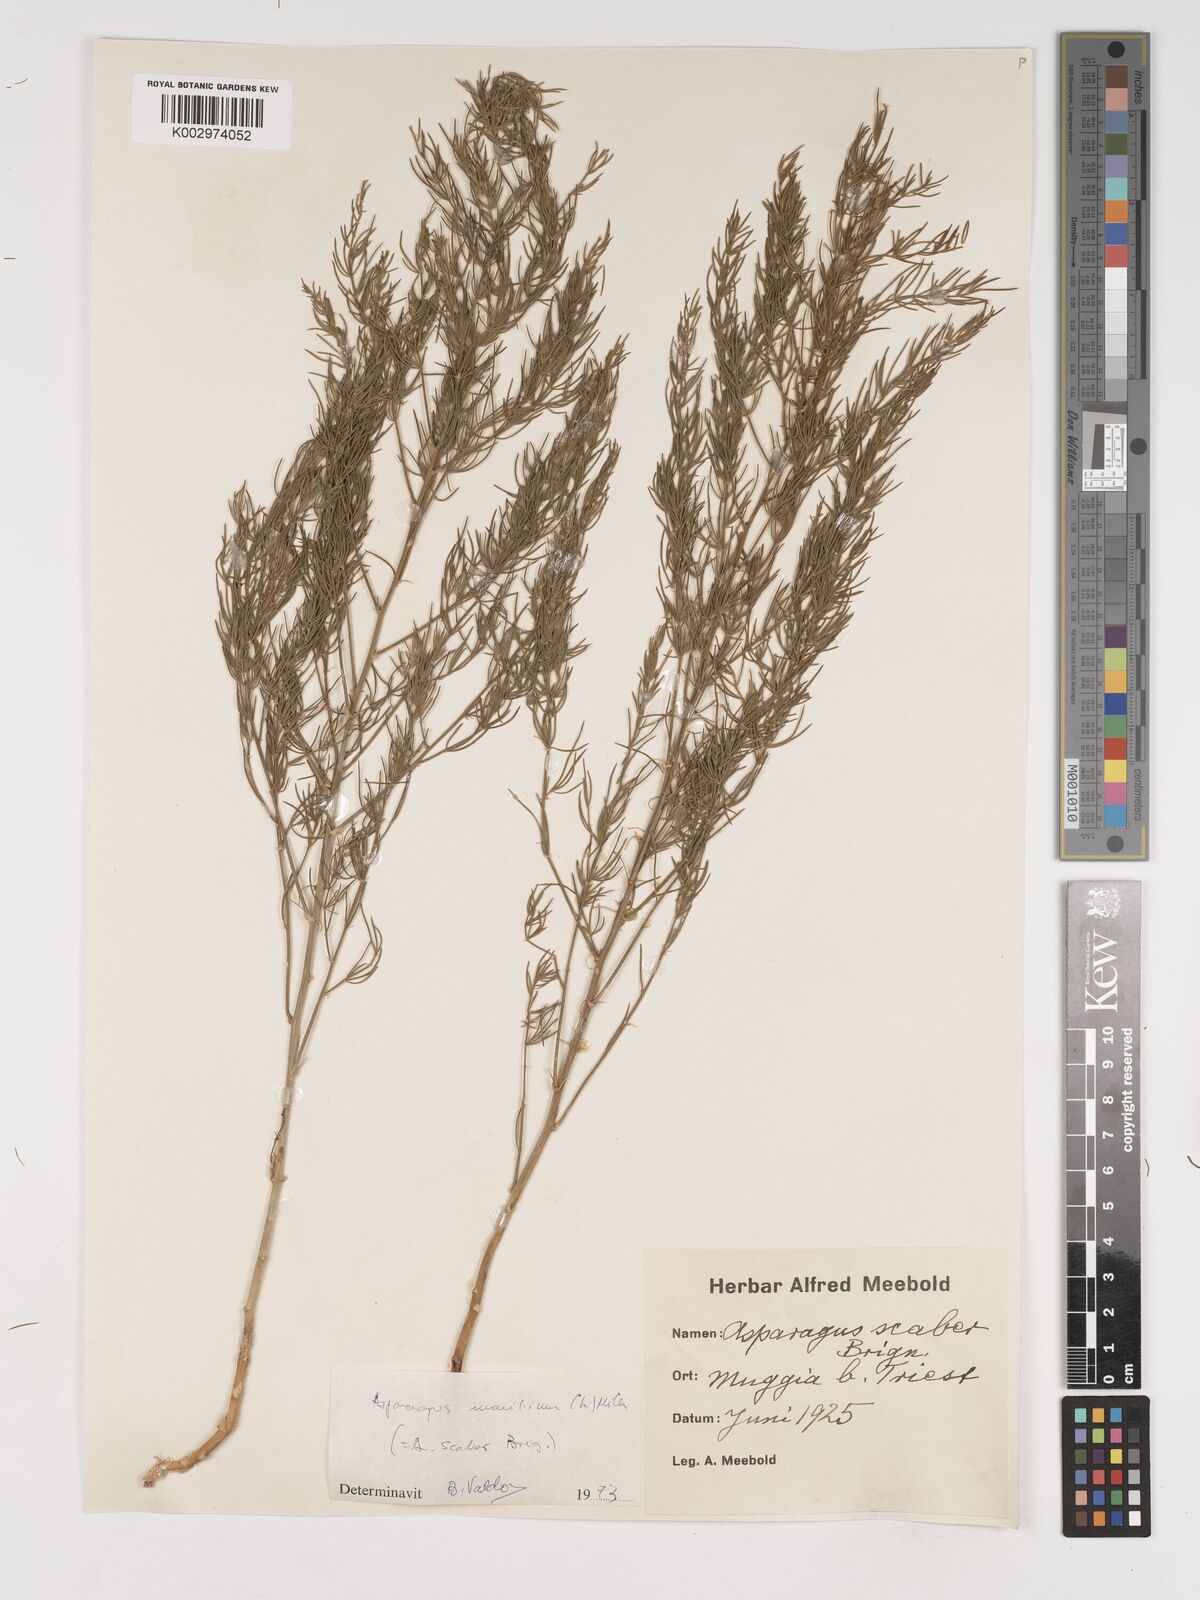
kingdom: Plantae
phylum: Tracheophyta
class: Liliopsida
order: Asparagales
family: Asparagaceae
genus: Asparagus
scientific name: Asparagus maritimus
